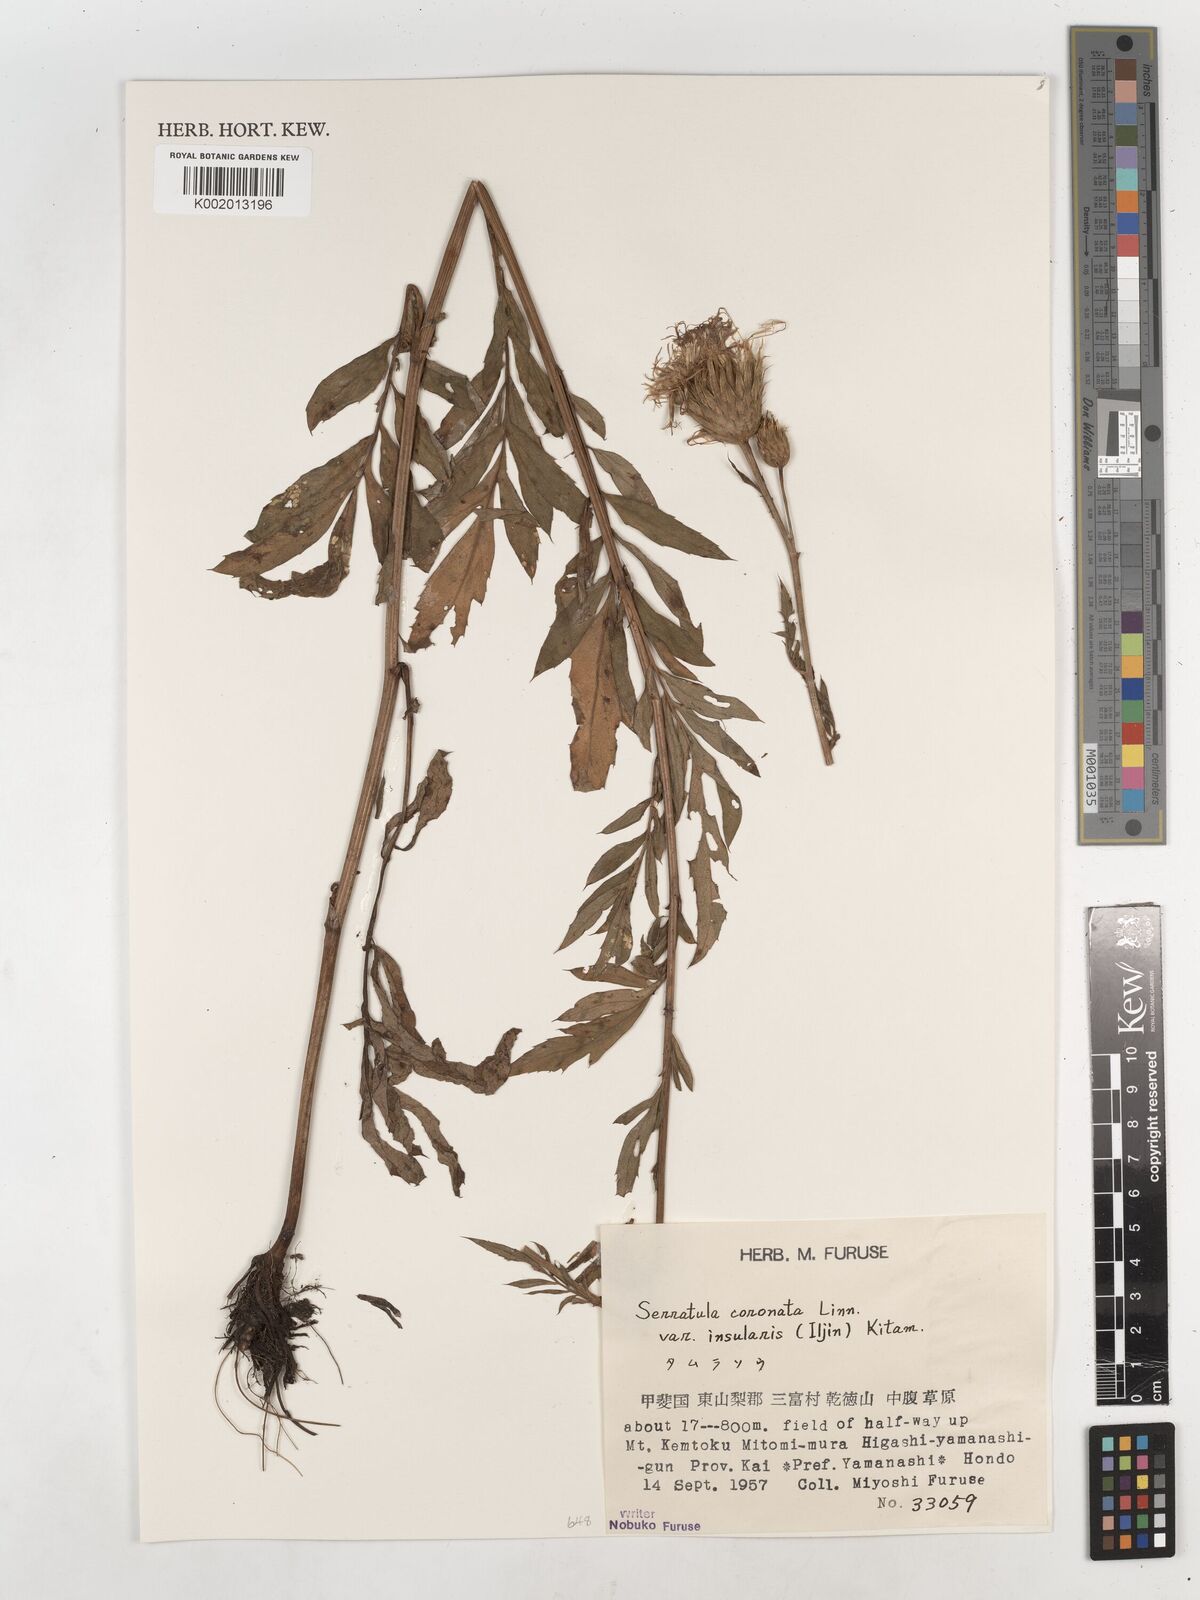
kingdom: Plantae
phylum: Tracheophyta
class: Magnoliopsida
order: Asterales
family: Asteraceae
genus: Serratula
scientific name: Serratula coronata
